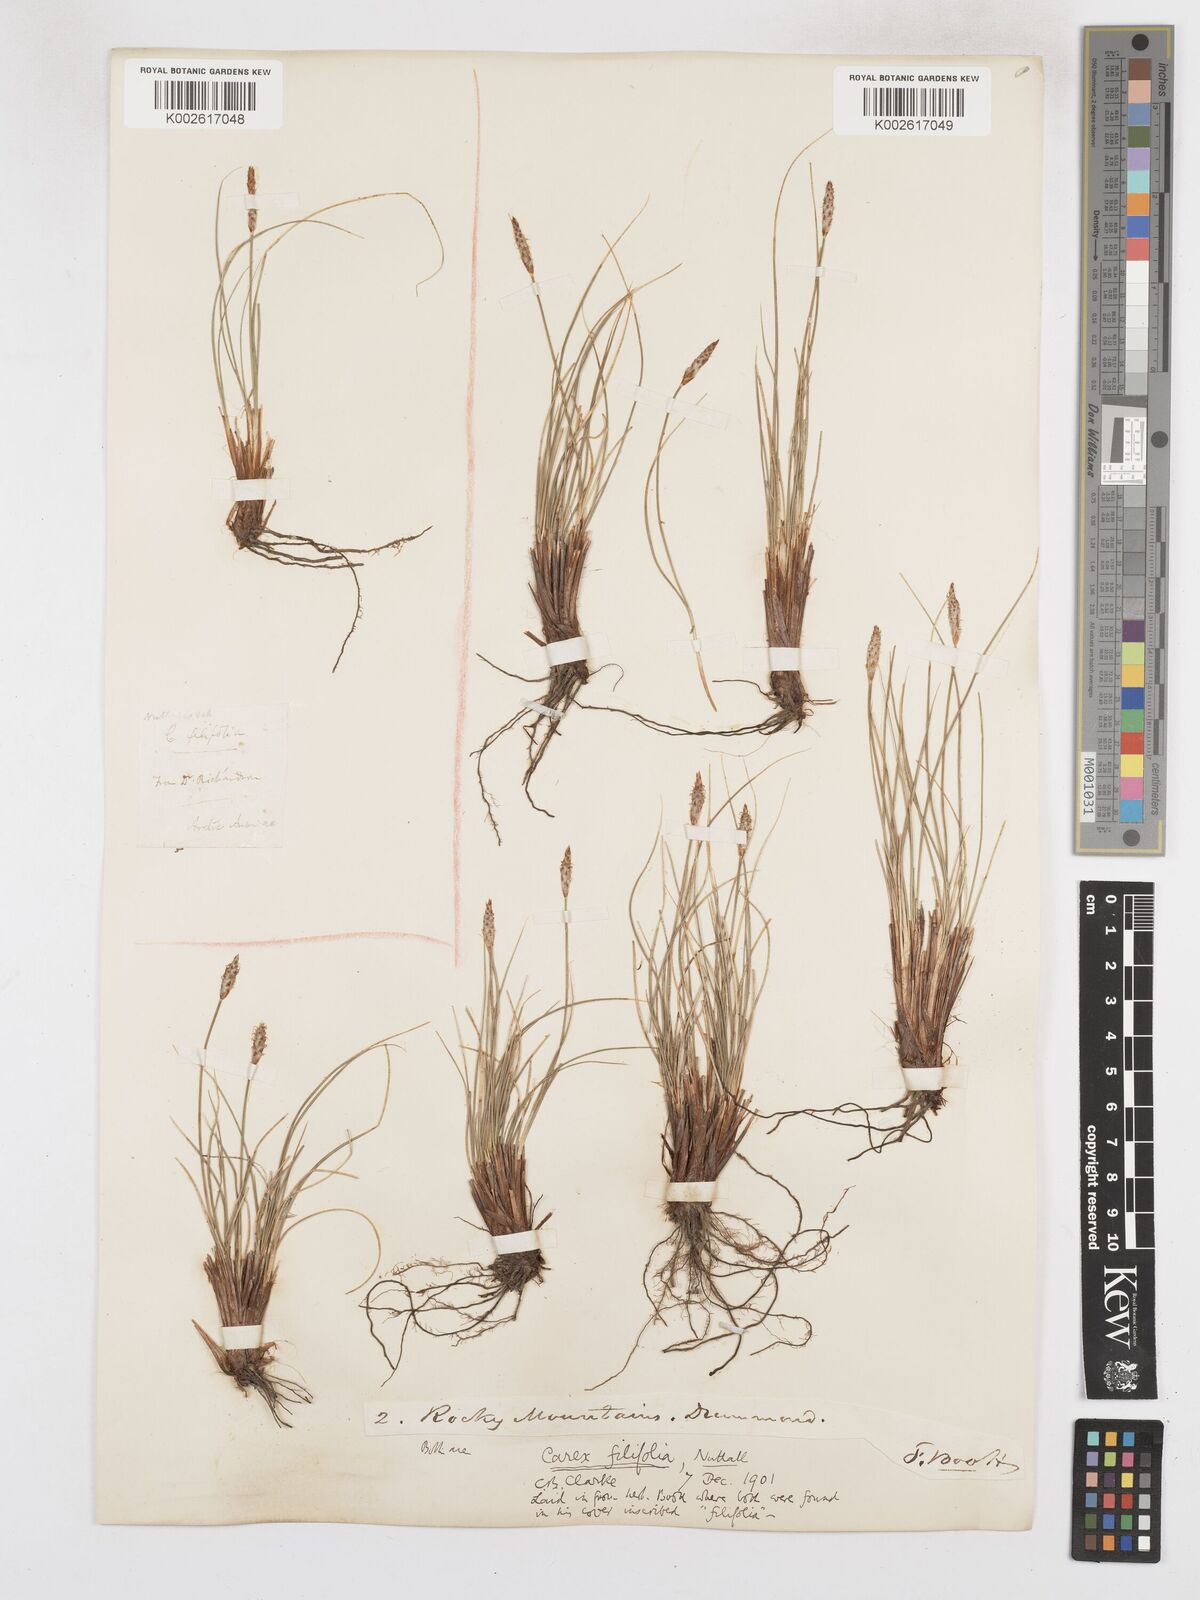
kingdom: Plantae
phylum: Tracheophyta
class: Liliopsida
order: Poales
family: Cyperaceae
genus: Carex
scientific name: Carex filifolia
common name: Threadleaf sedge
